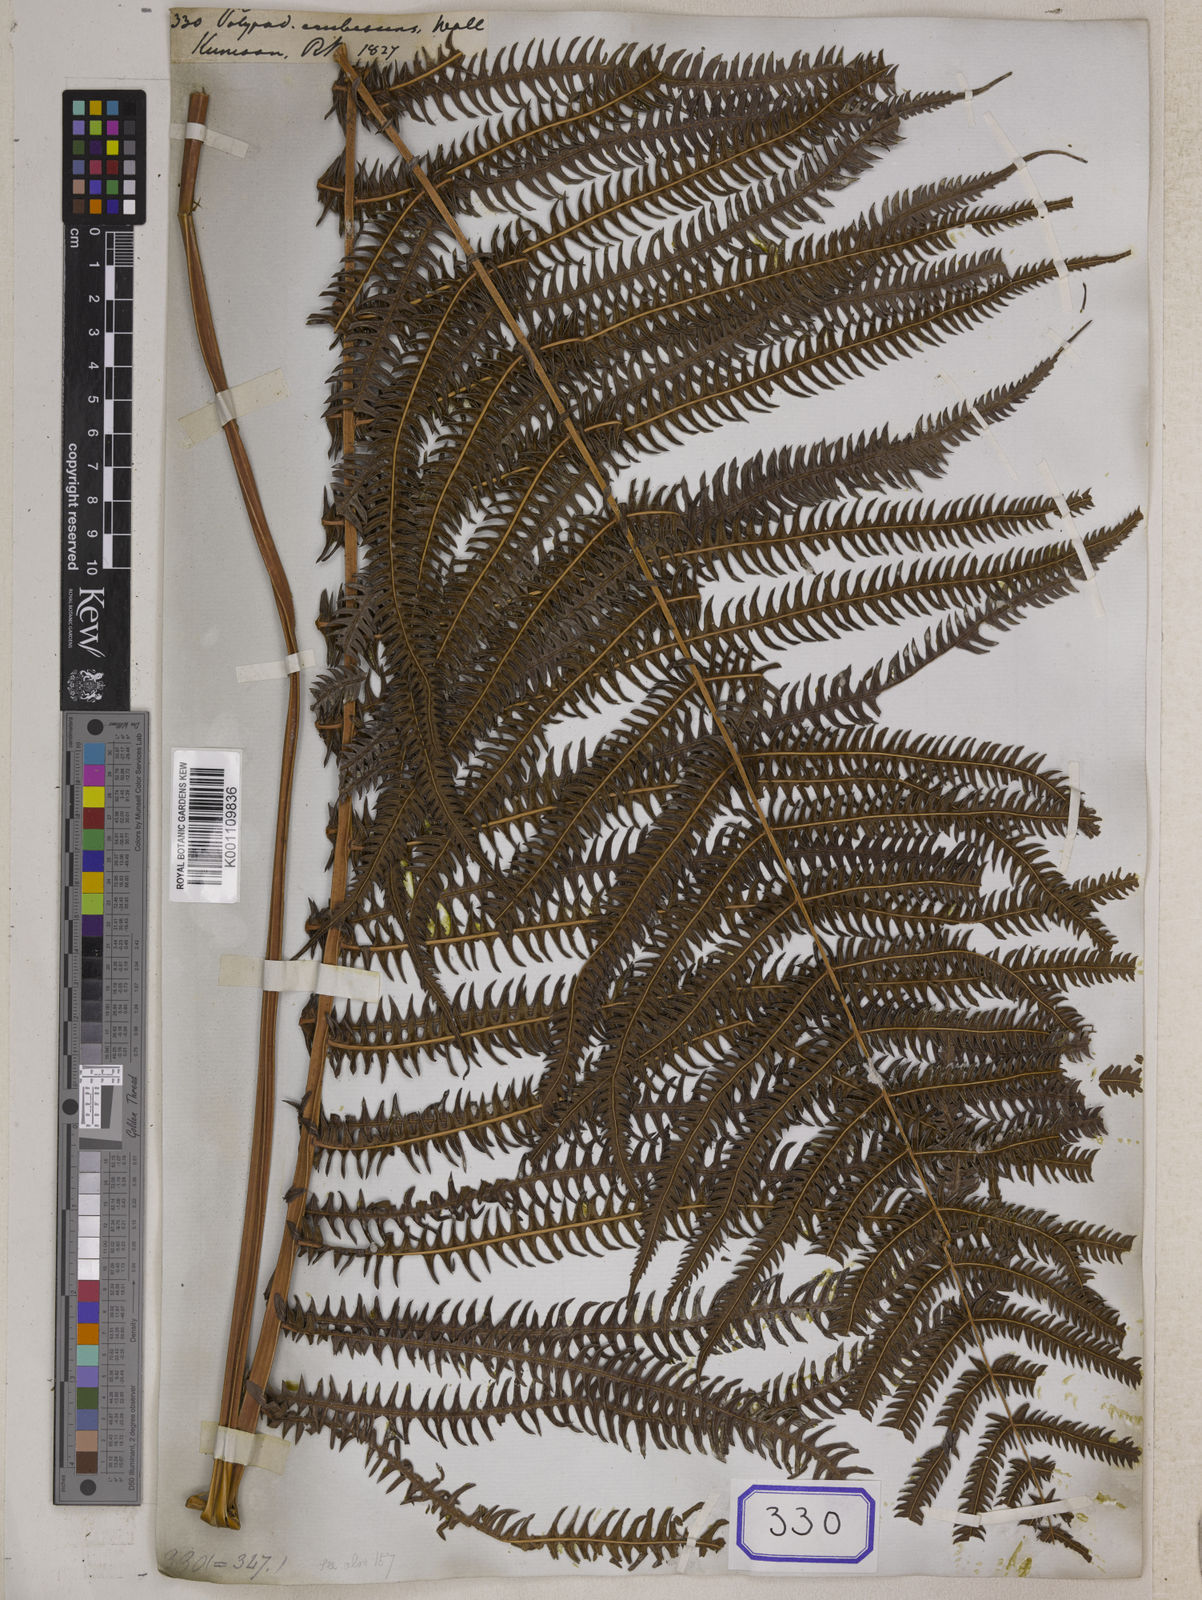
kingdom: Plantae
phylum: Tracheophyta
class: Polypodiopsida
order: Polypodiales
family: Polypodiaceae
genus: Polypodium
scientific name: Polypodium
